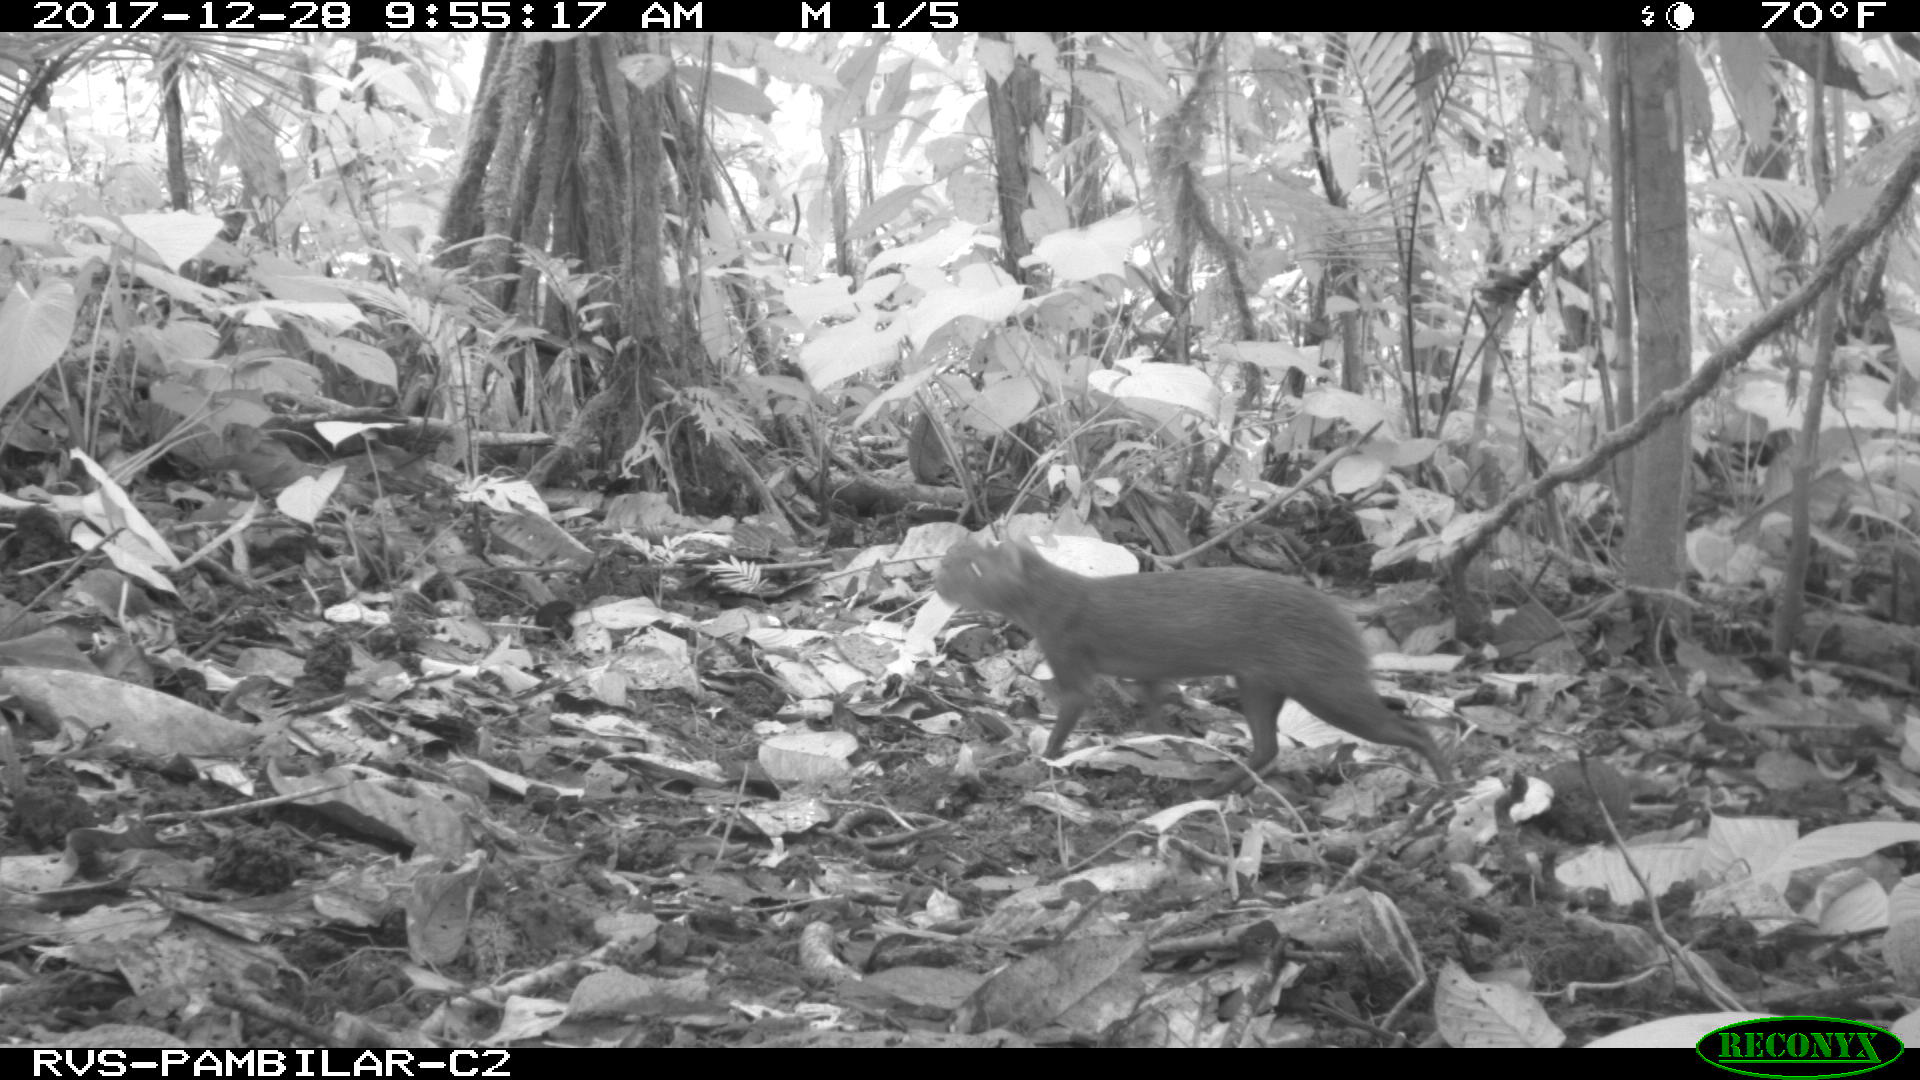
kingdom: Animalia
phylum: Chordata
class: Mammalia
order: Rodentia
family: Dasyproctidae
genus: Dasyprocta
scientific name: Dasyprocta punctata
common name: Central american agouti
